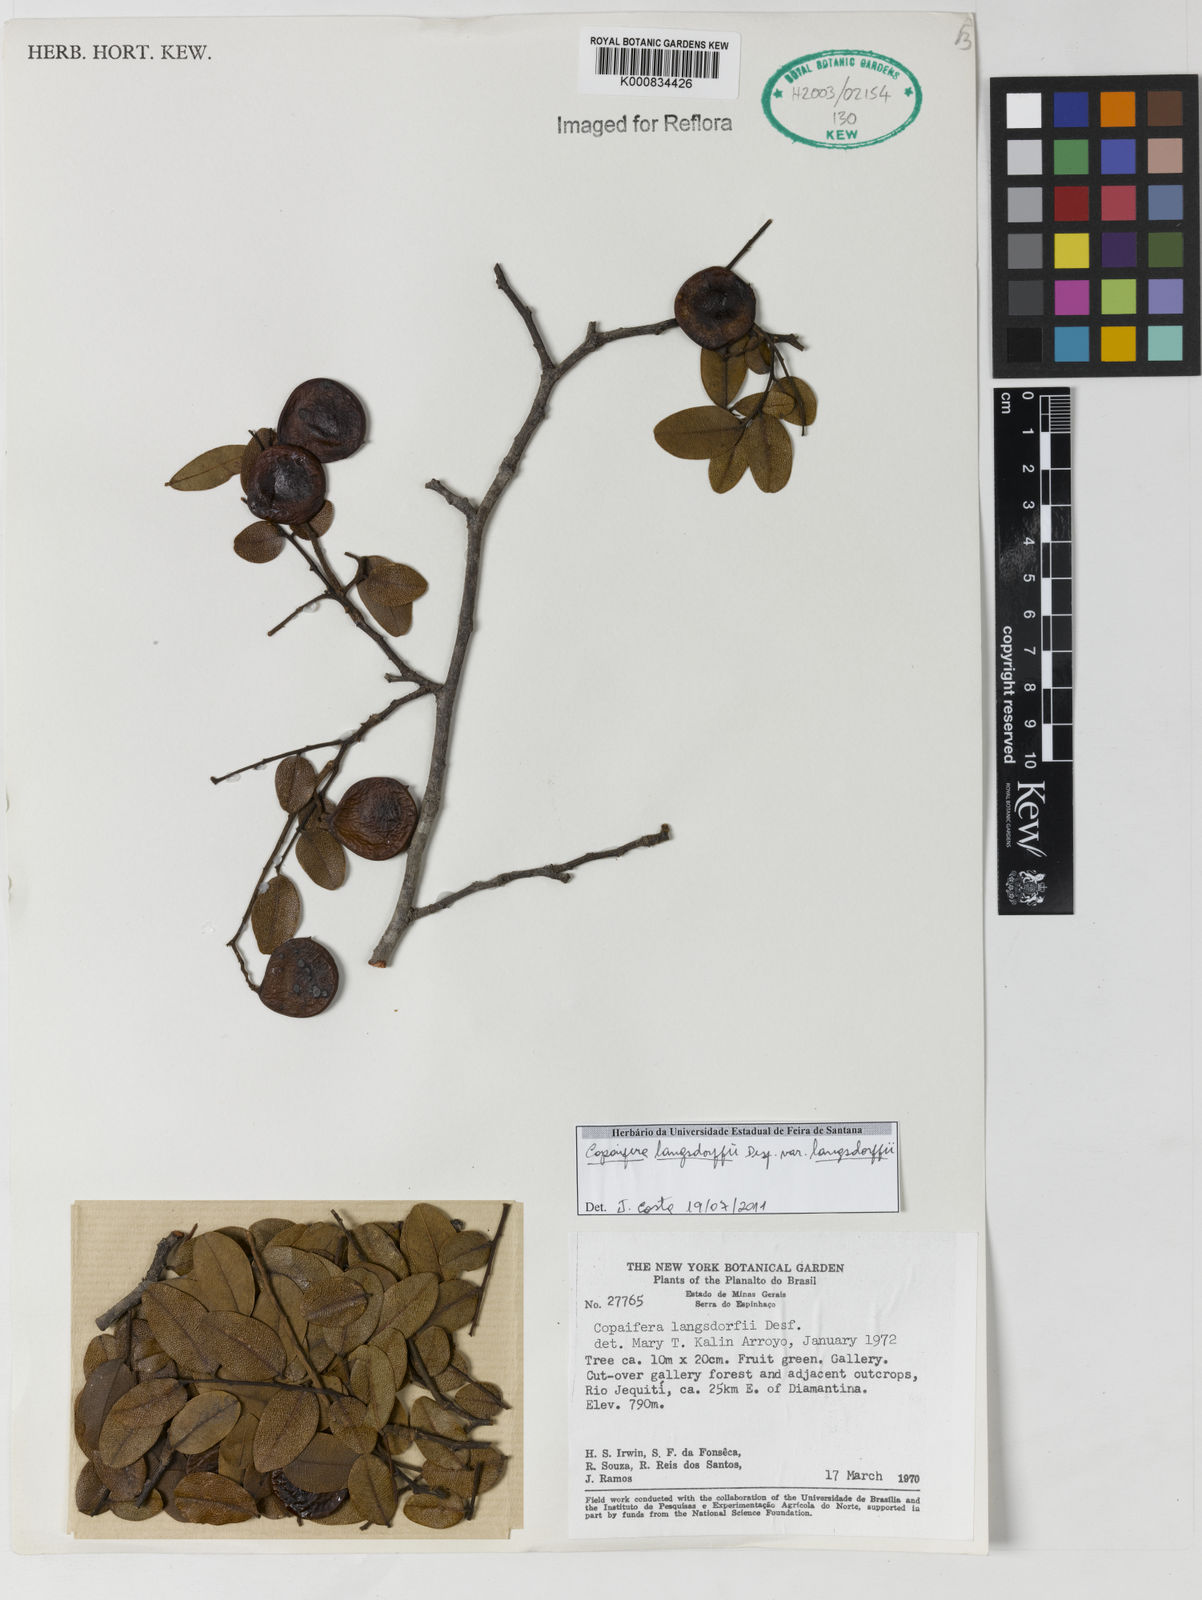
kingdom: Plantae
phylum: Tracheophyta
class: Magnoliopsida
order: Fabales
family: Fabaceae
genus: Copaifera
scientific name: Copaifera langsdorffii
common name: Brazilian diesel tree
